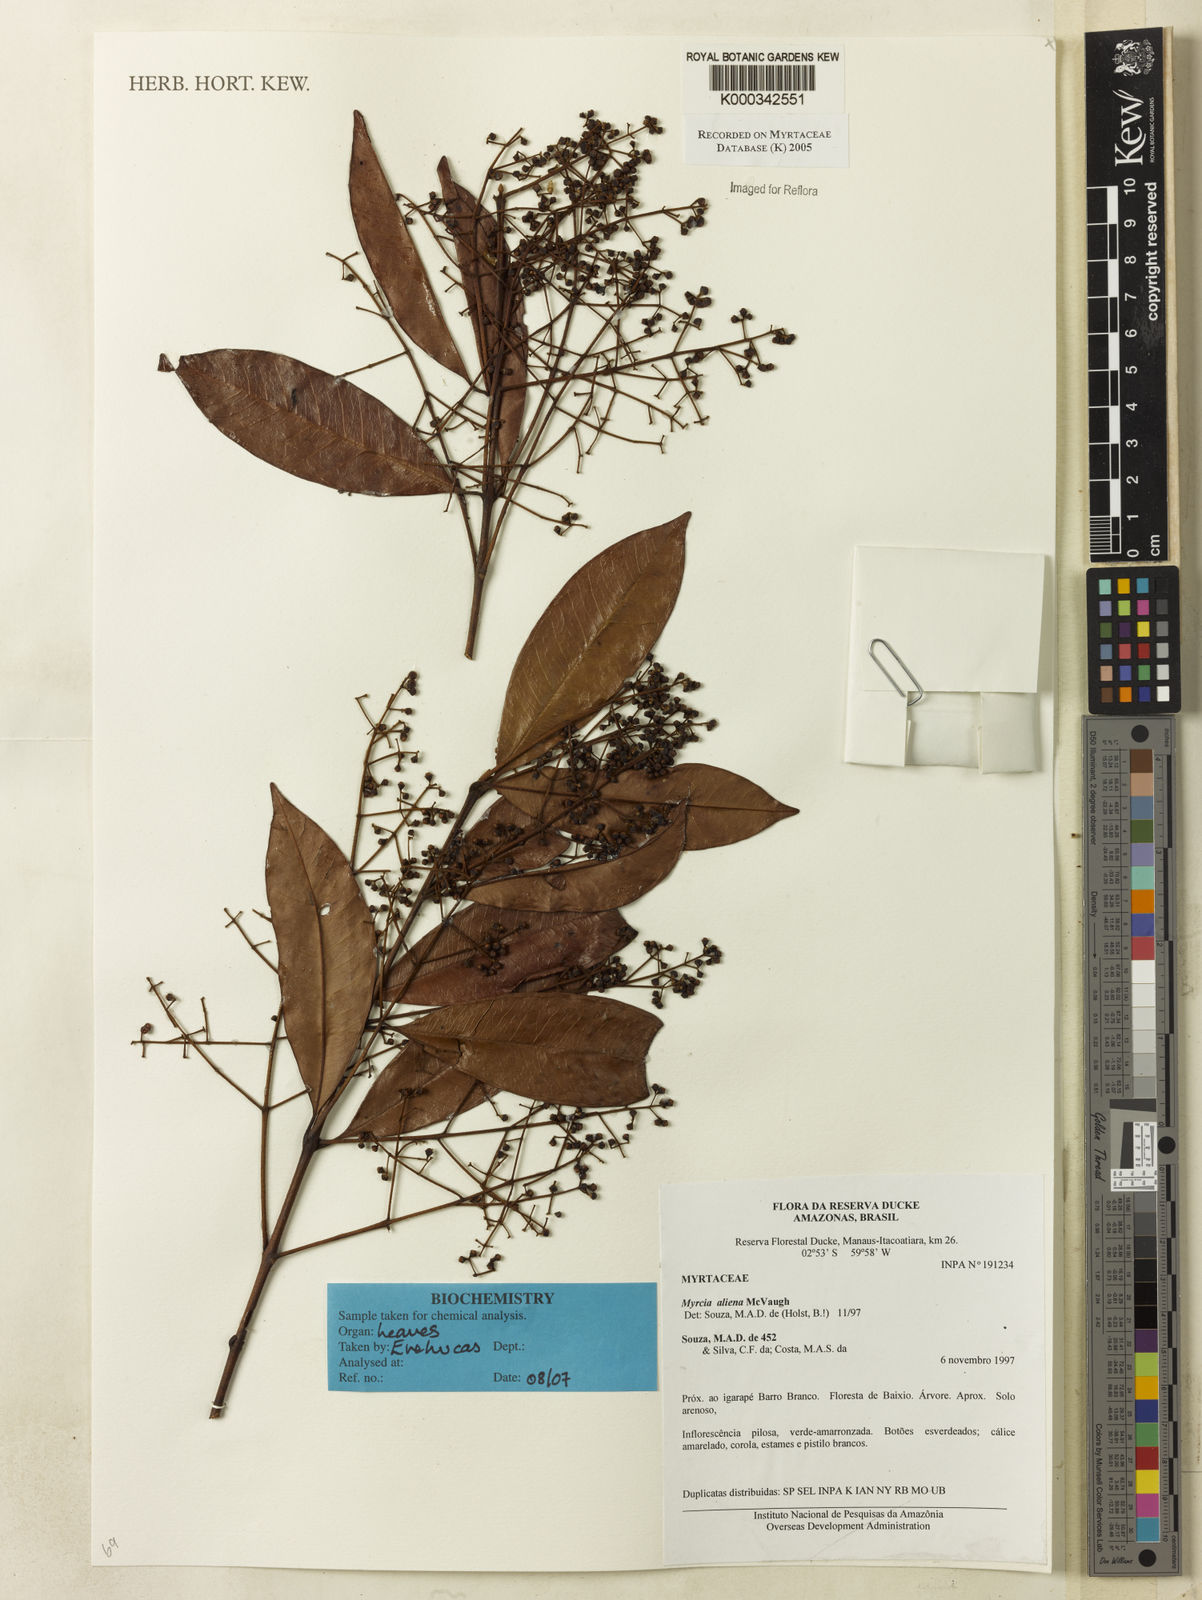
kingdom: Plantae
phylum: Tracheophyta
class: Magnoliopsida
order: Myrtales
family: Myrtaceae
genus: Myrcia
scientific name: Myrcia aliena
